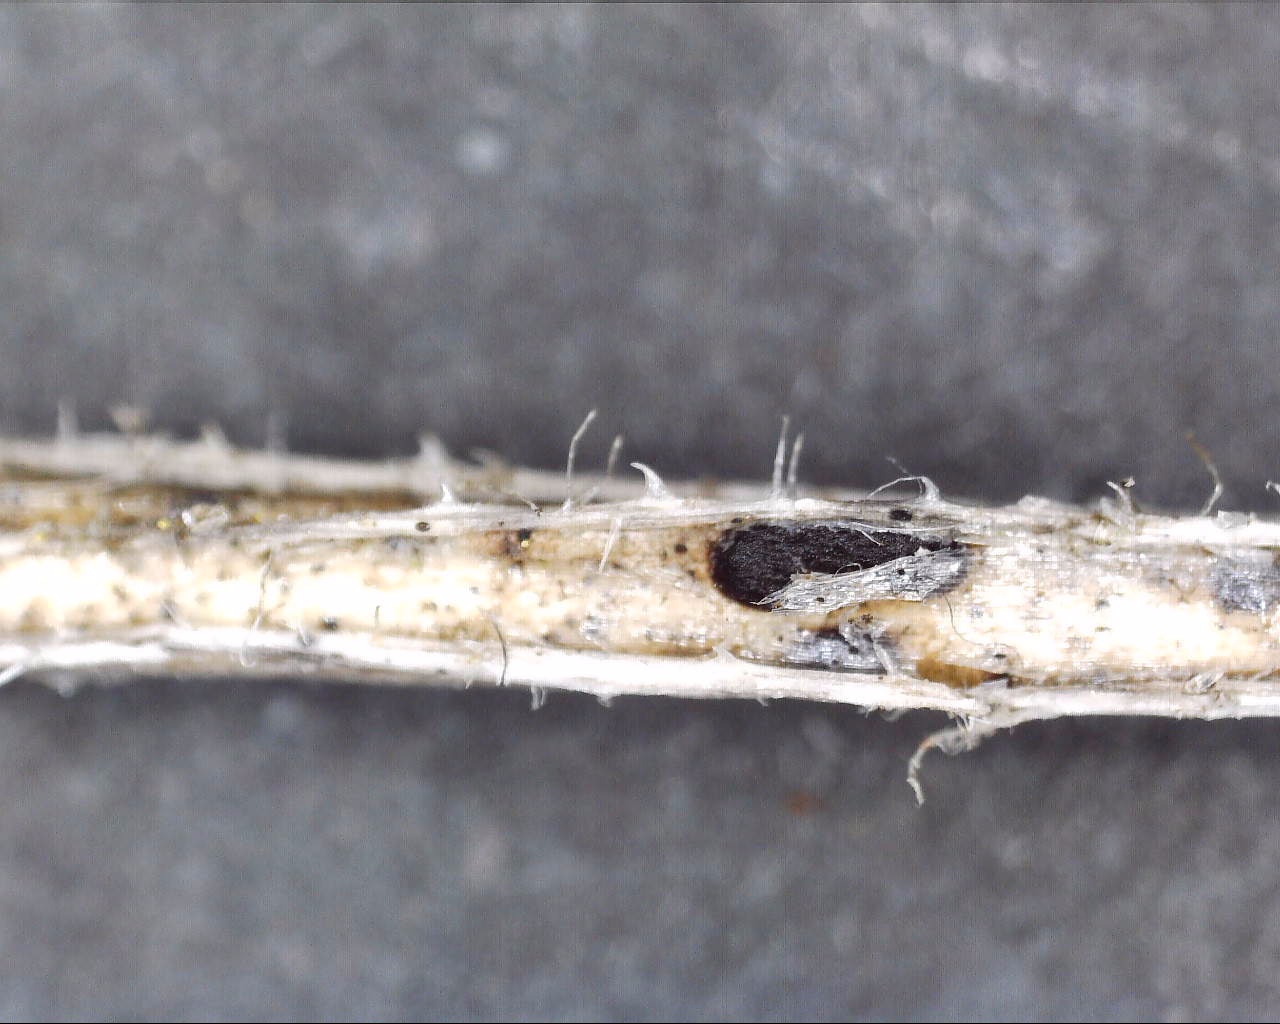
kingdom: Fungi
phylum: Basidiomycota
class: Pucciniomycetes
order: Pucciniales
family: Pucciniaceae
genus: Puccinia
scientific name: Puccinia difformis
